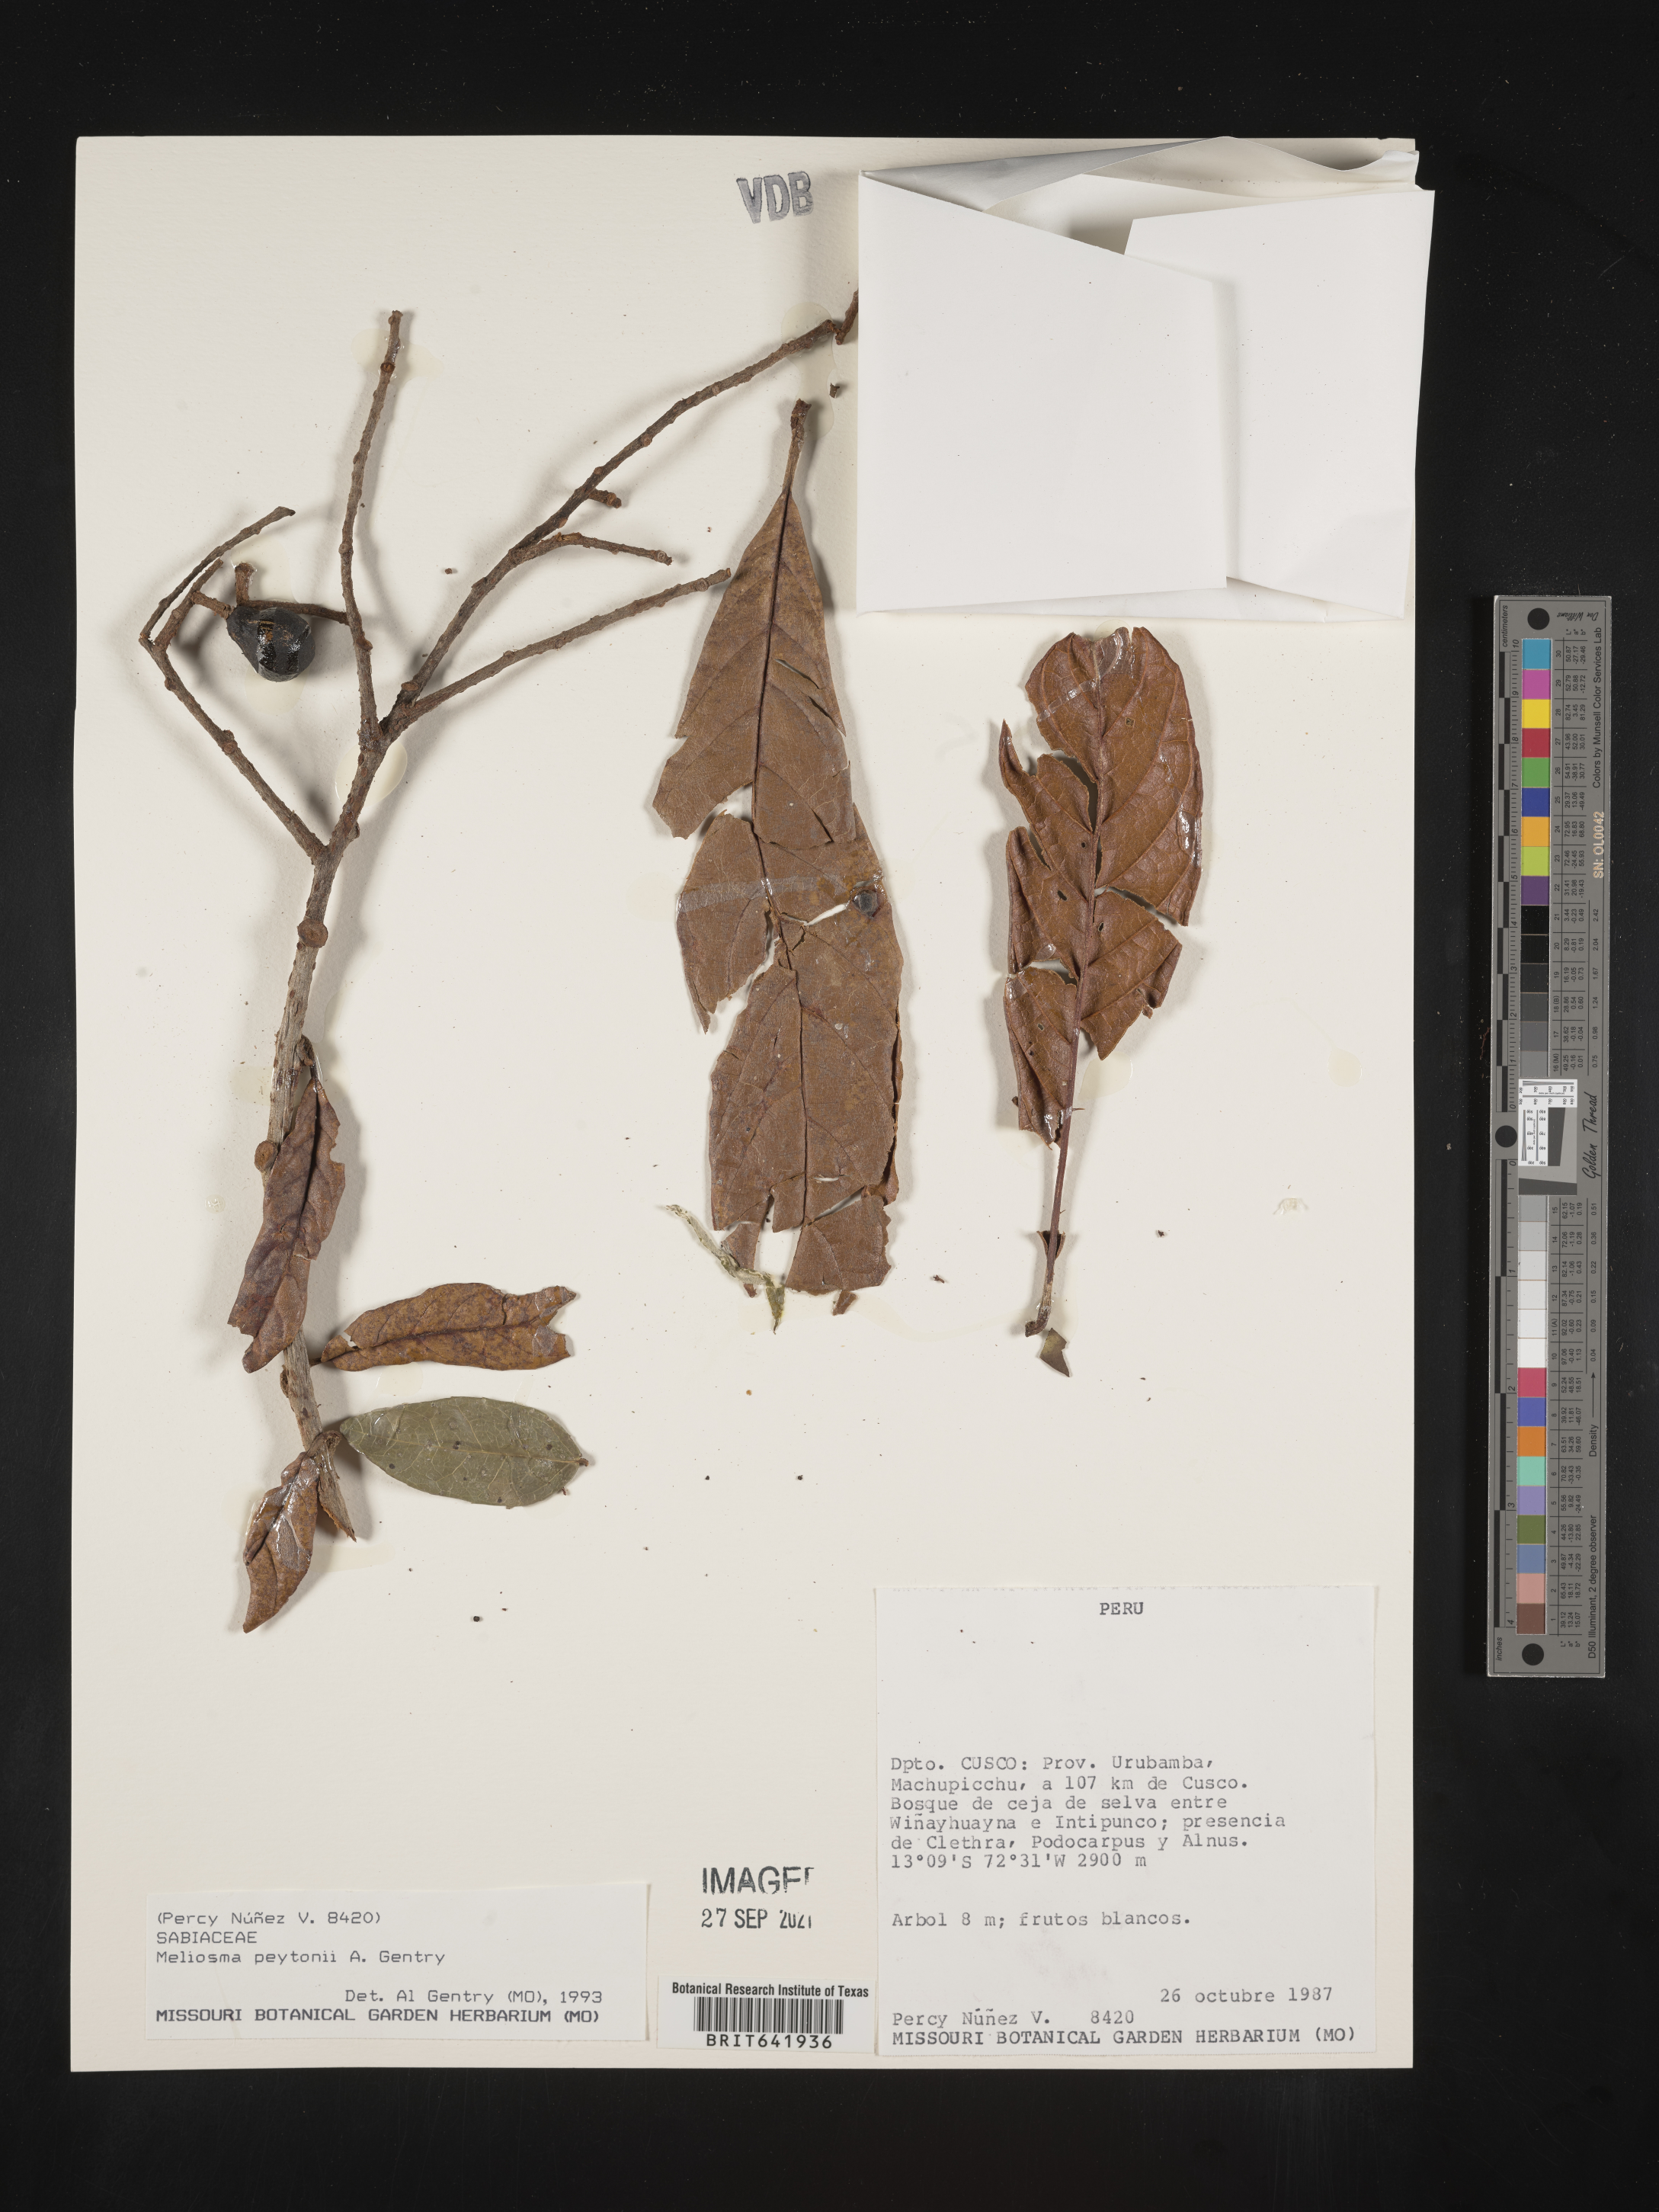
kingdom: Plantae
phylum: Tracheophyta
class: Magnoliopsida
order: Proteales
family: Sabiaceae
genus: Meliosma
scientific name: Meliosma
